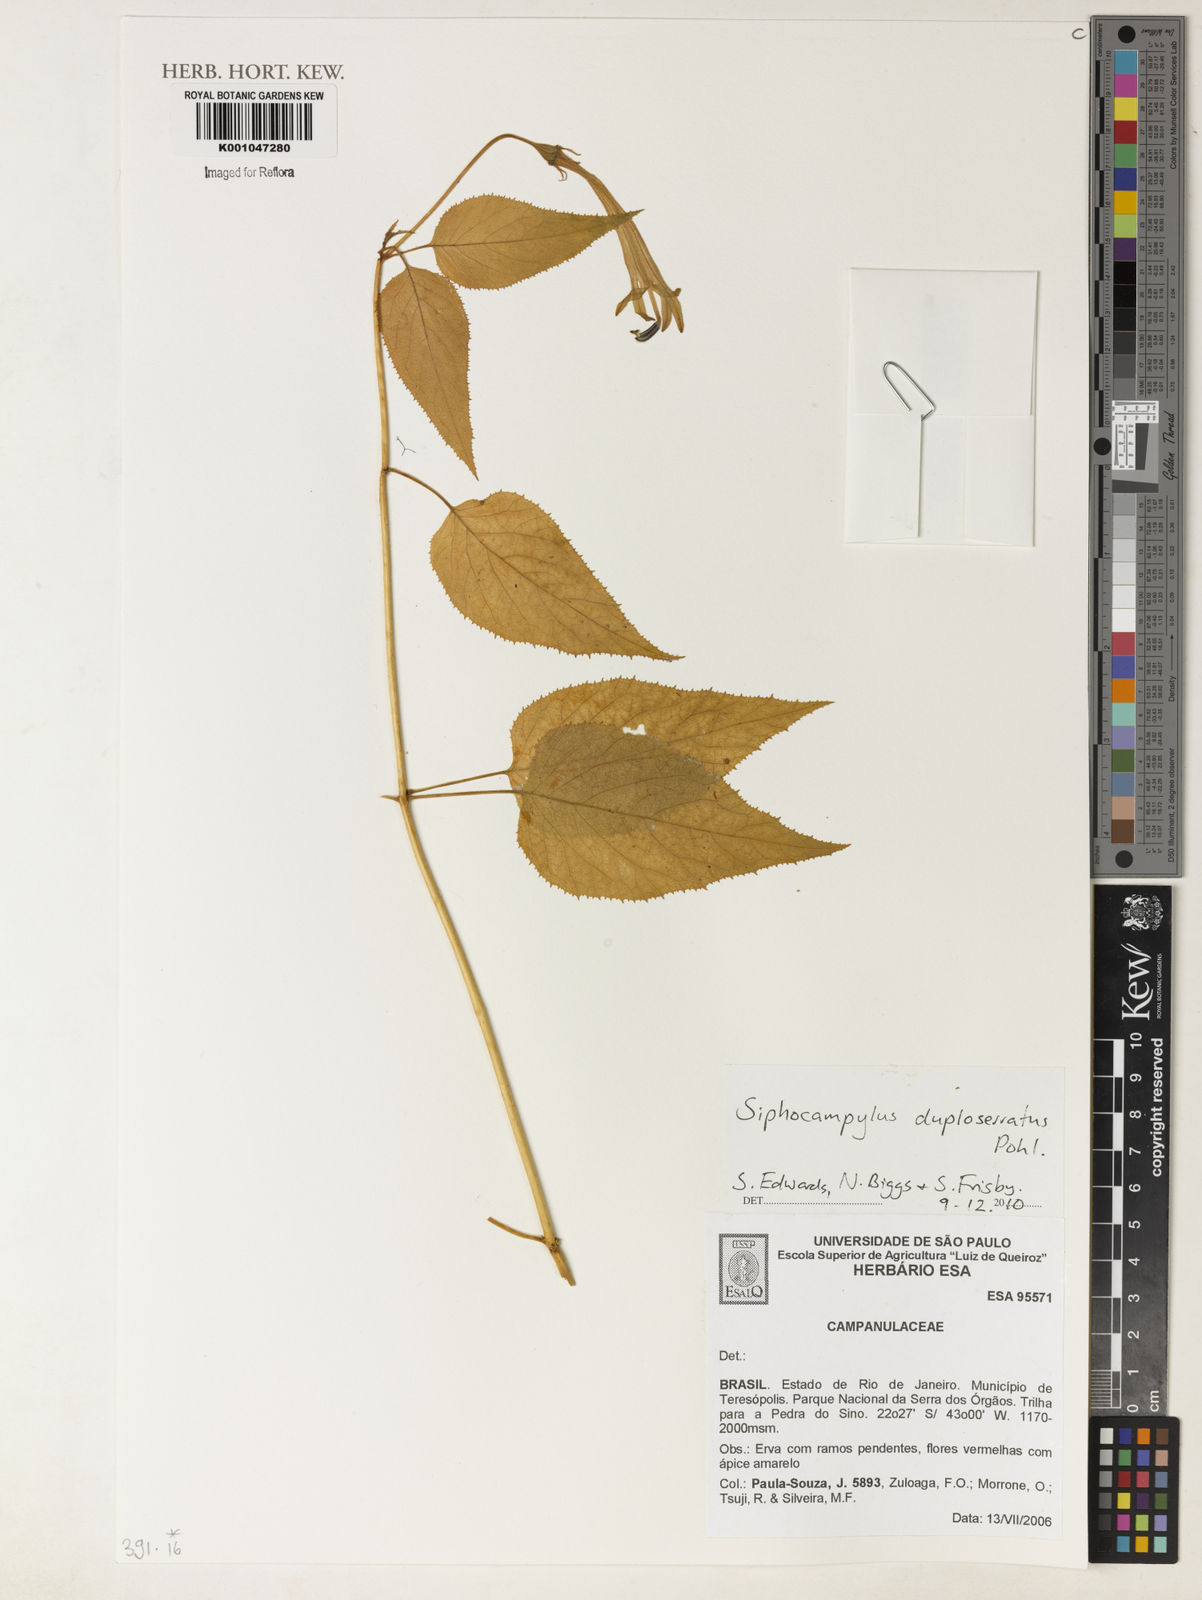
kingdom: Plantae
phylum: Tracheophyta
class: Magnoliopsida
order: Asterales
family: Campanulaceae
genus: Siphocampylus
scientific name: Siphocampylus duploserratus
